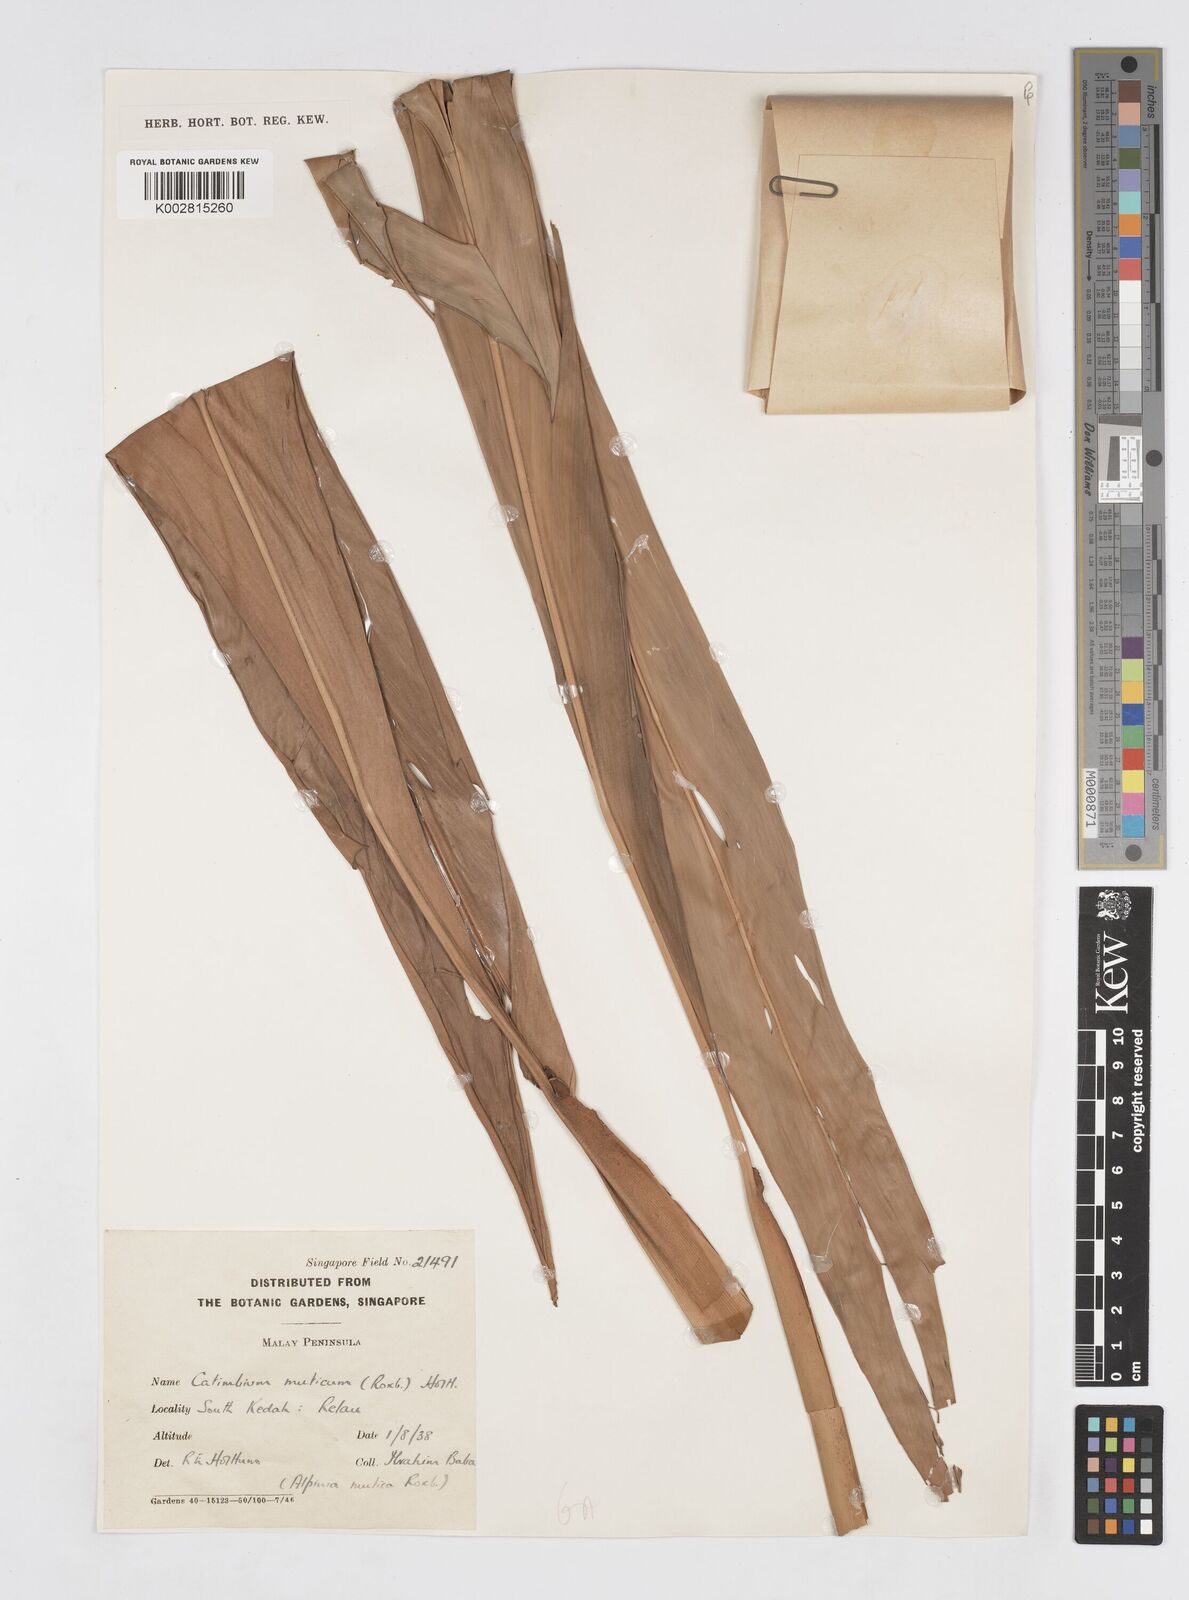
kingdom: Plantae
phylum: Tracheophyta
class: Liliopsida
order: Zingiberales
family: Zingiberaceae
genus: Alpinia
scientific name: Alpinia mutica
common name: Small shell ginger
